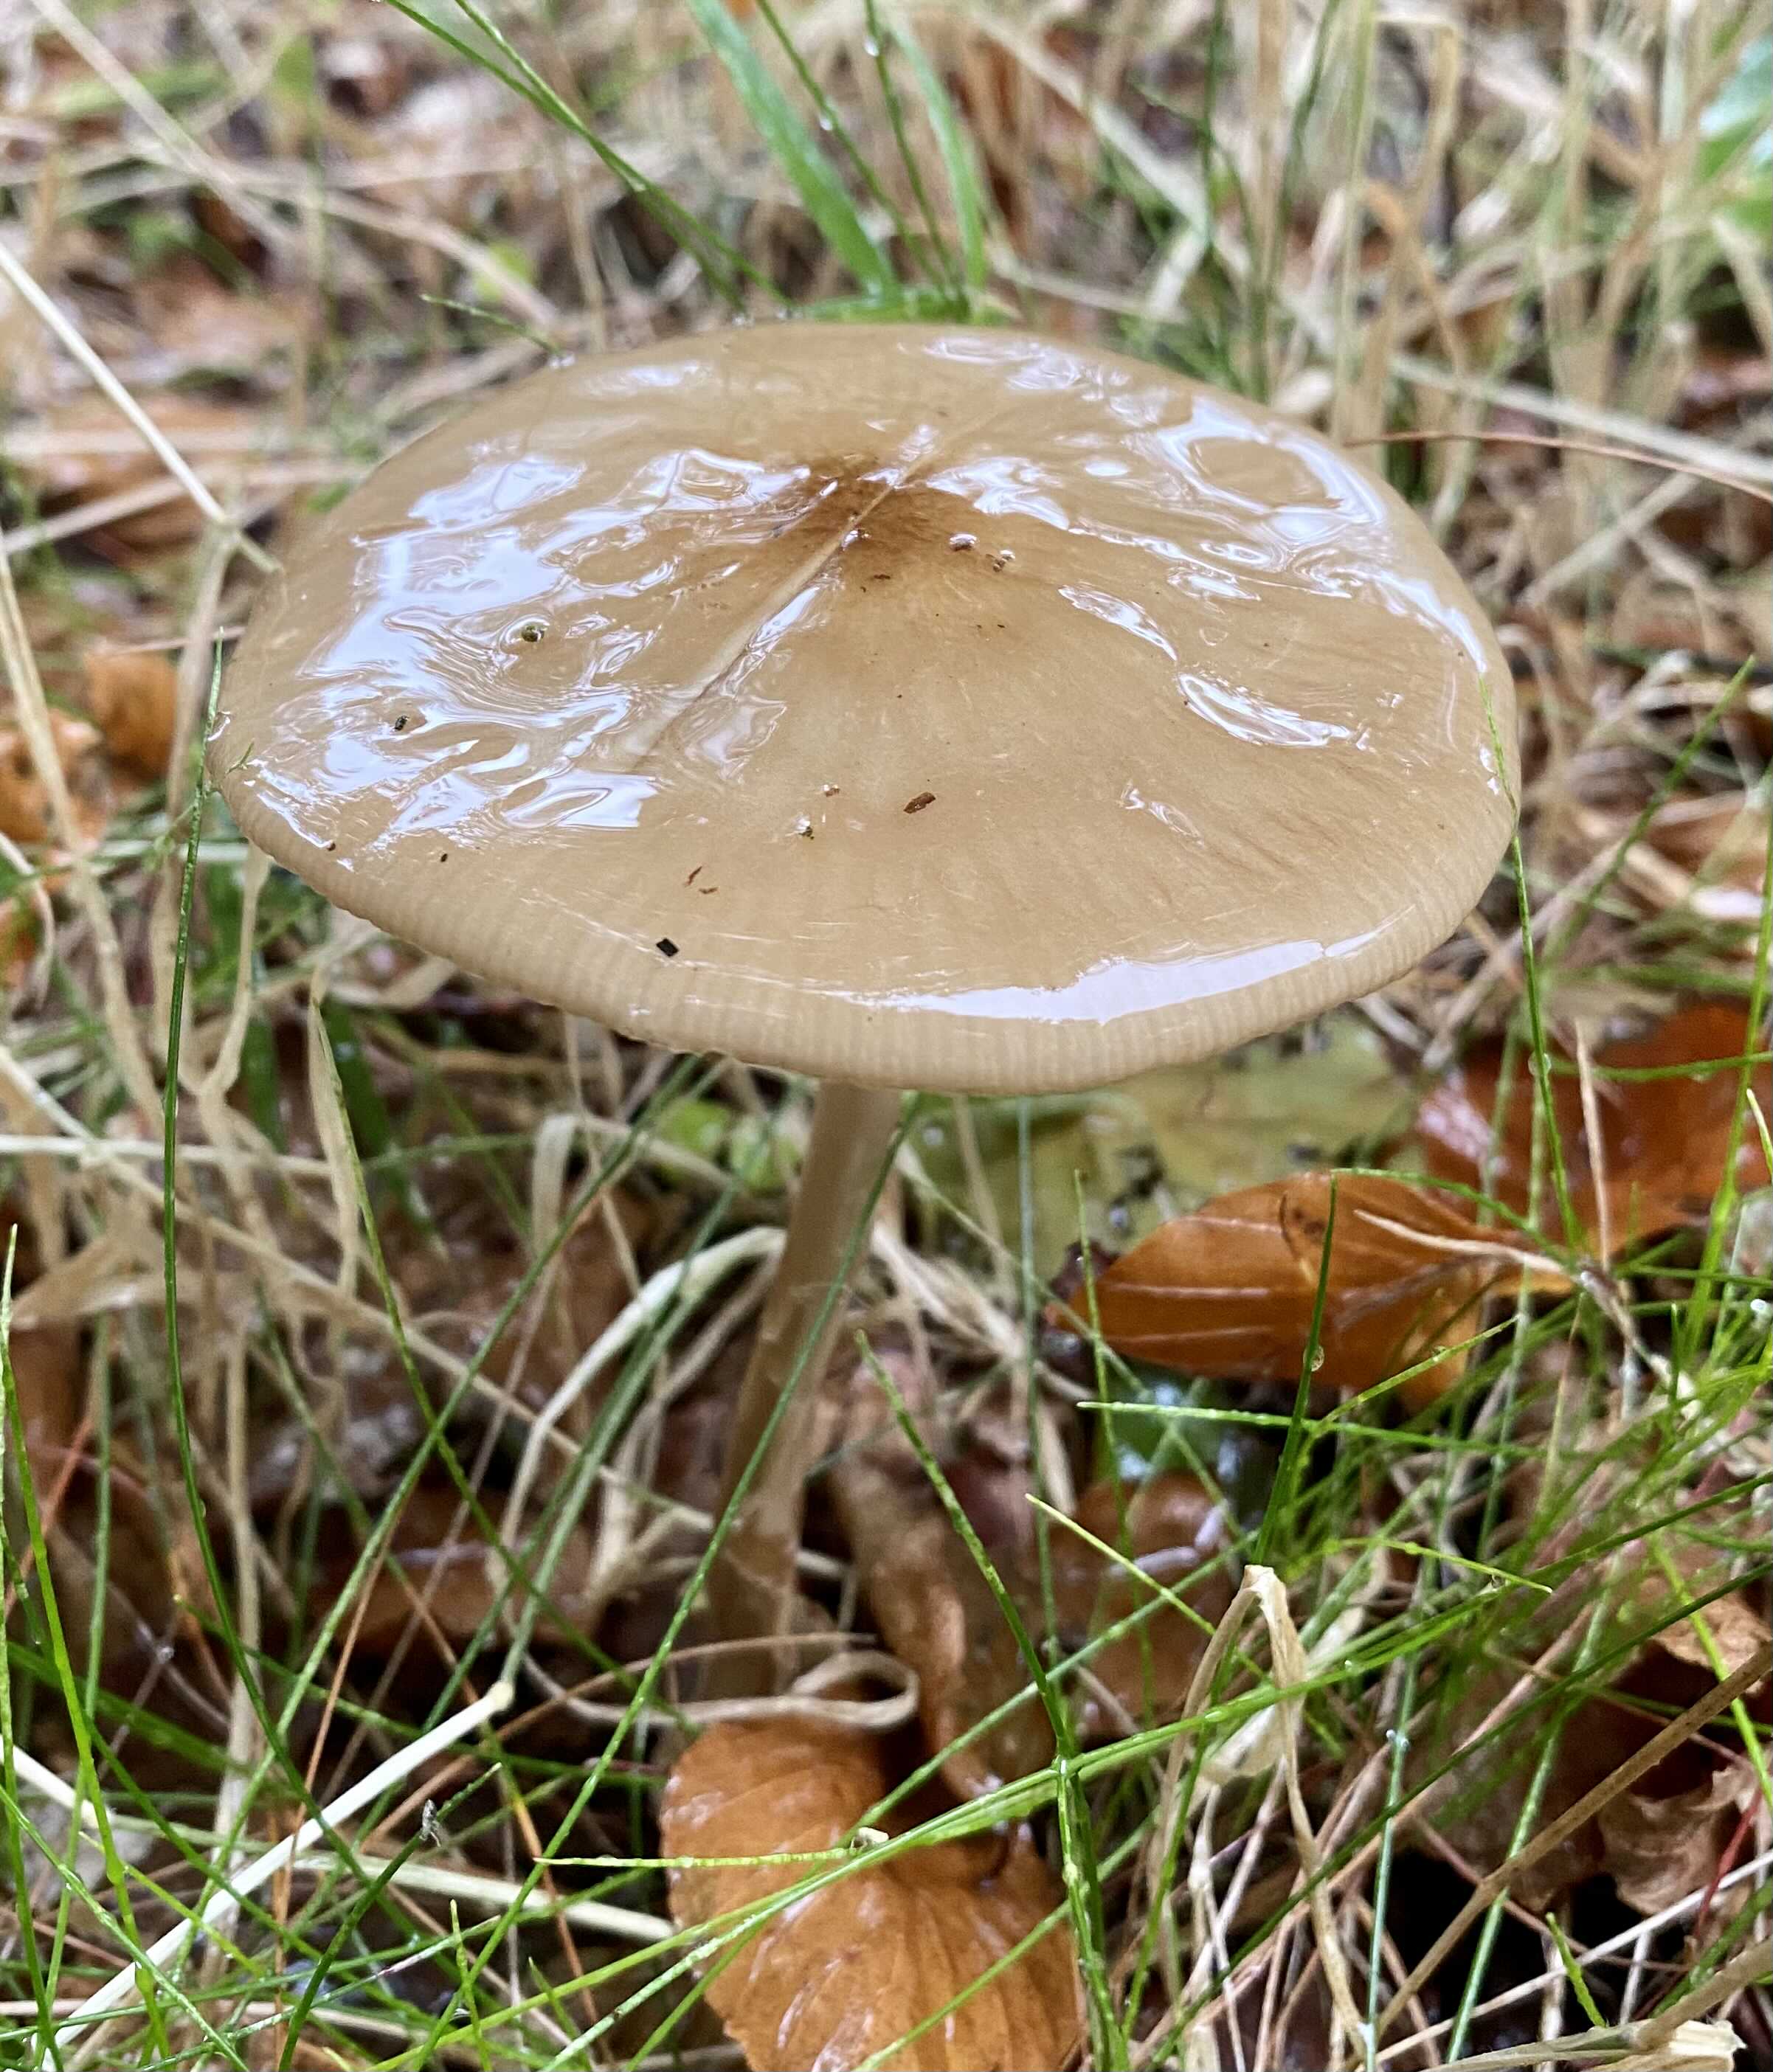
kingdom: Fungi
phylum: Basidiomycota
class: Agaricomycetes
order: Agaricales
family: Physalacriaceae
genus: Hymenopellis
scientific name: Hymenopellis radicata
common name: almindelig pælerodshat
